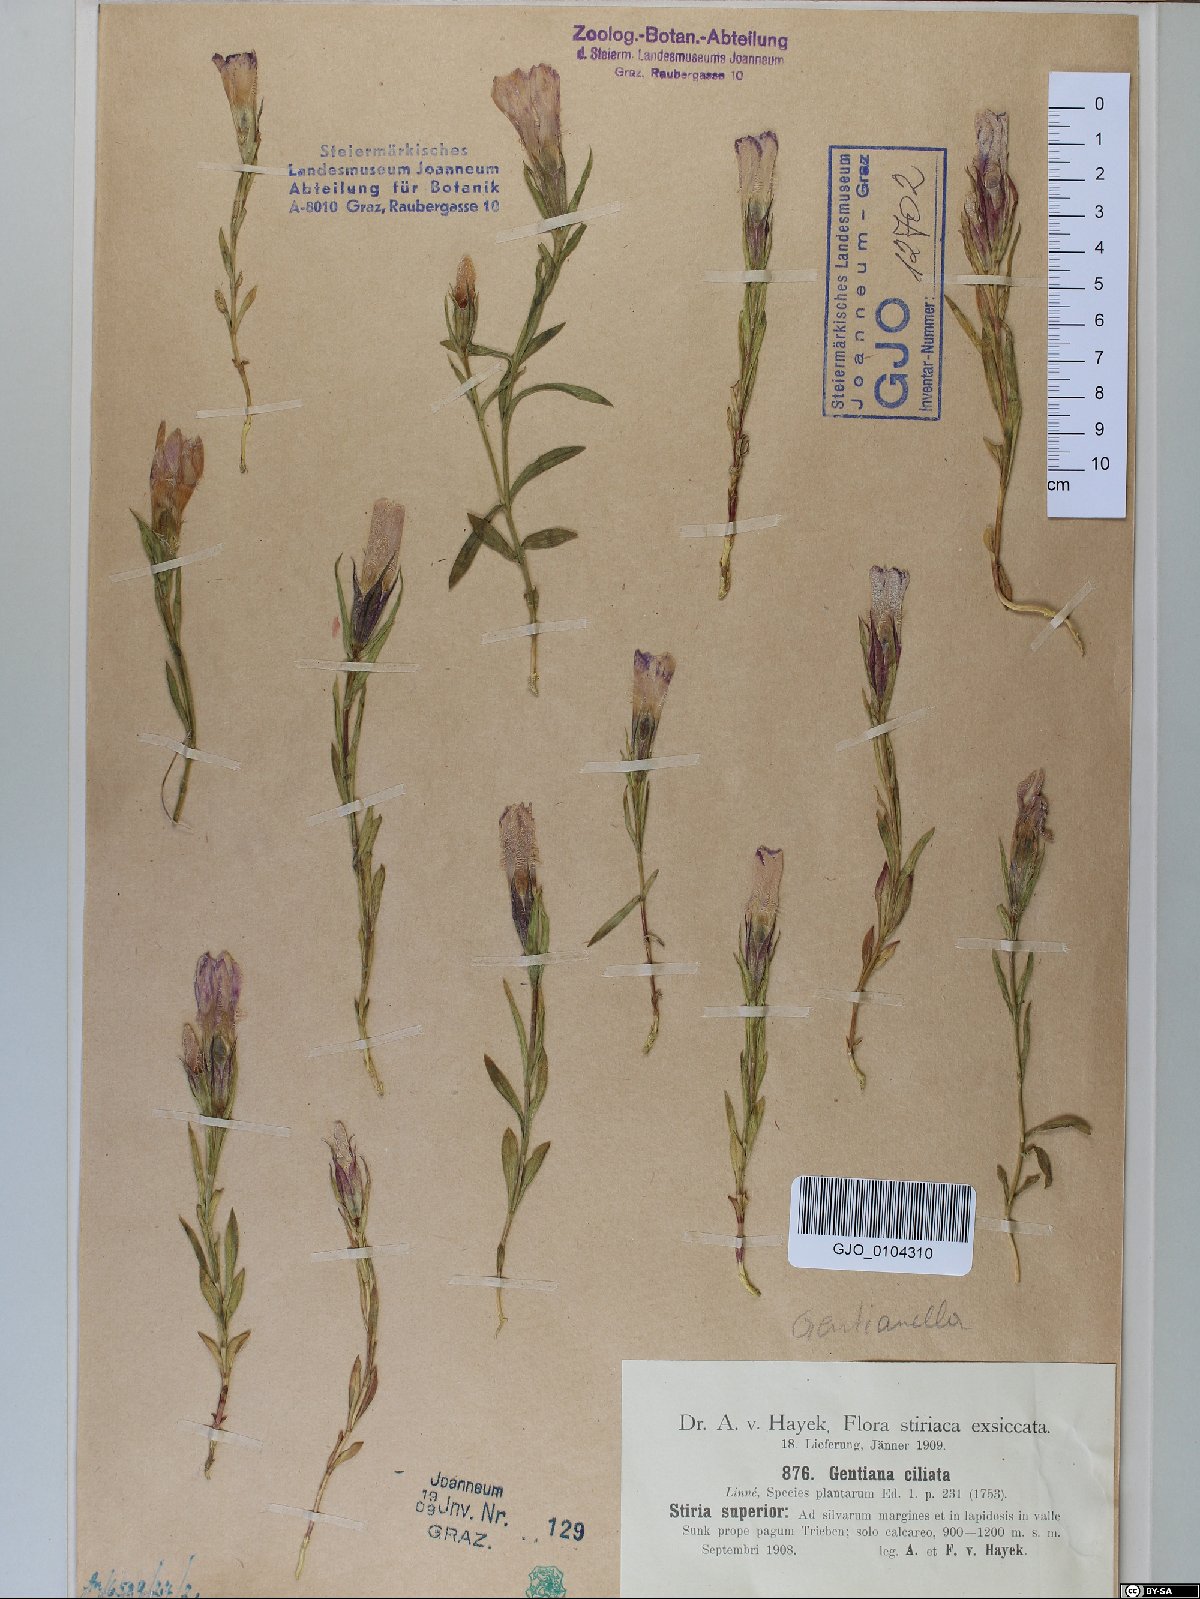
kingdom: Plantae
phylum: Tracheophyta
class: Magnoliopsida
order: Gentianales
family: Gentianaceae
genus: Gentianopsis
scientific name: Gentianopsis ciliata
